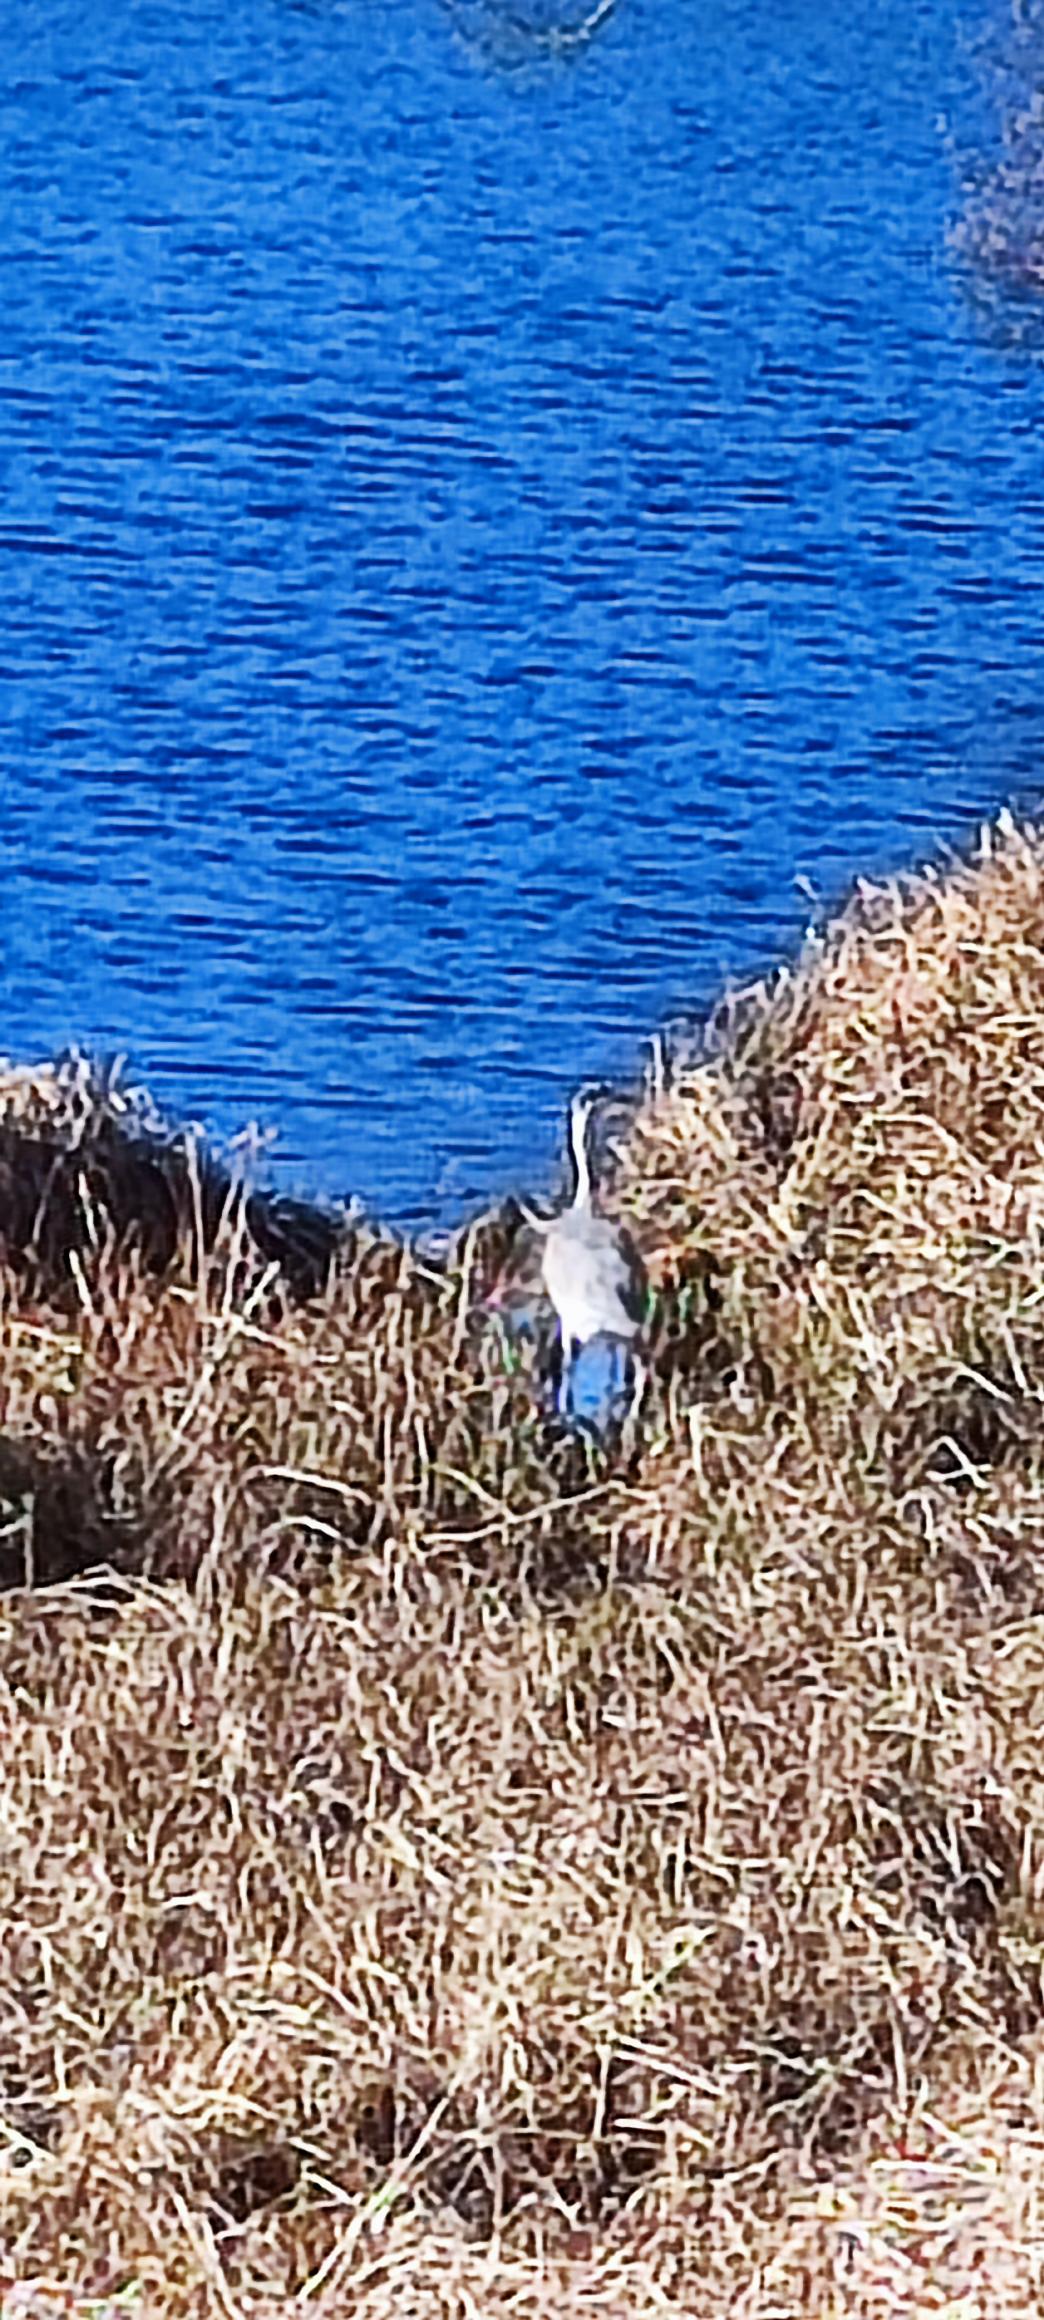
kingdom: Animalia
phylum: Chordata
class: Aves
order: Pelecaniformes
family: Ardeidae
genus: Ardea
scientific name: Ardea cinerea
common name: Fiskehejre
